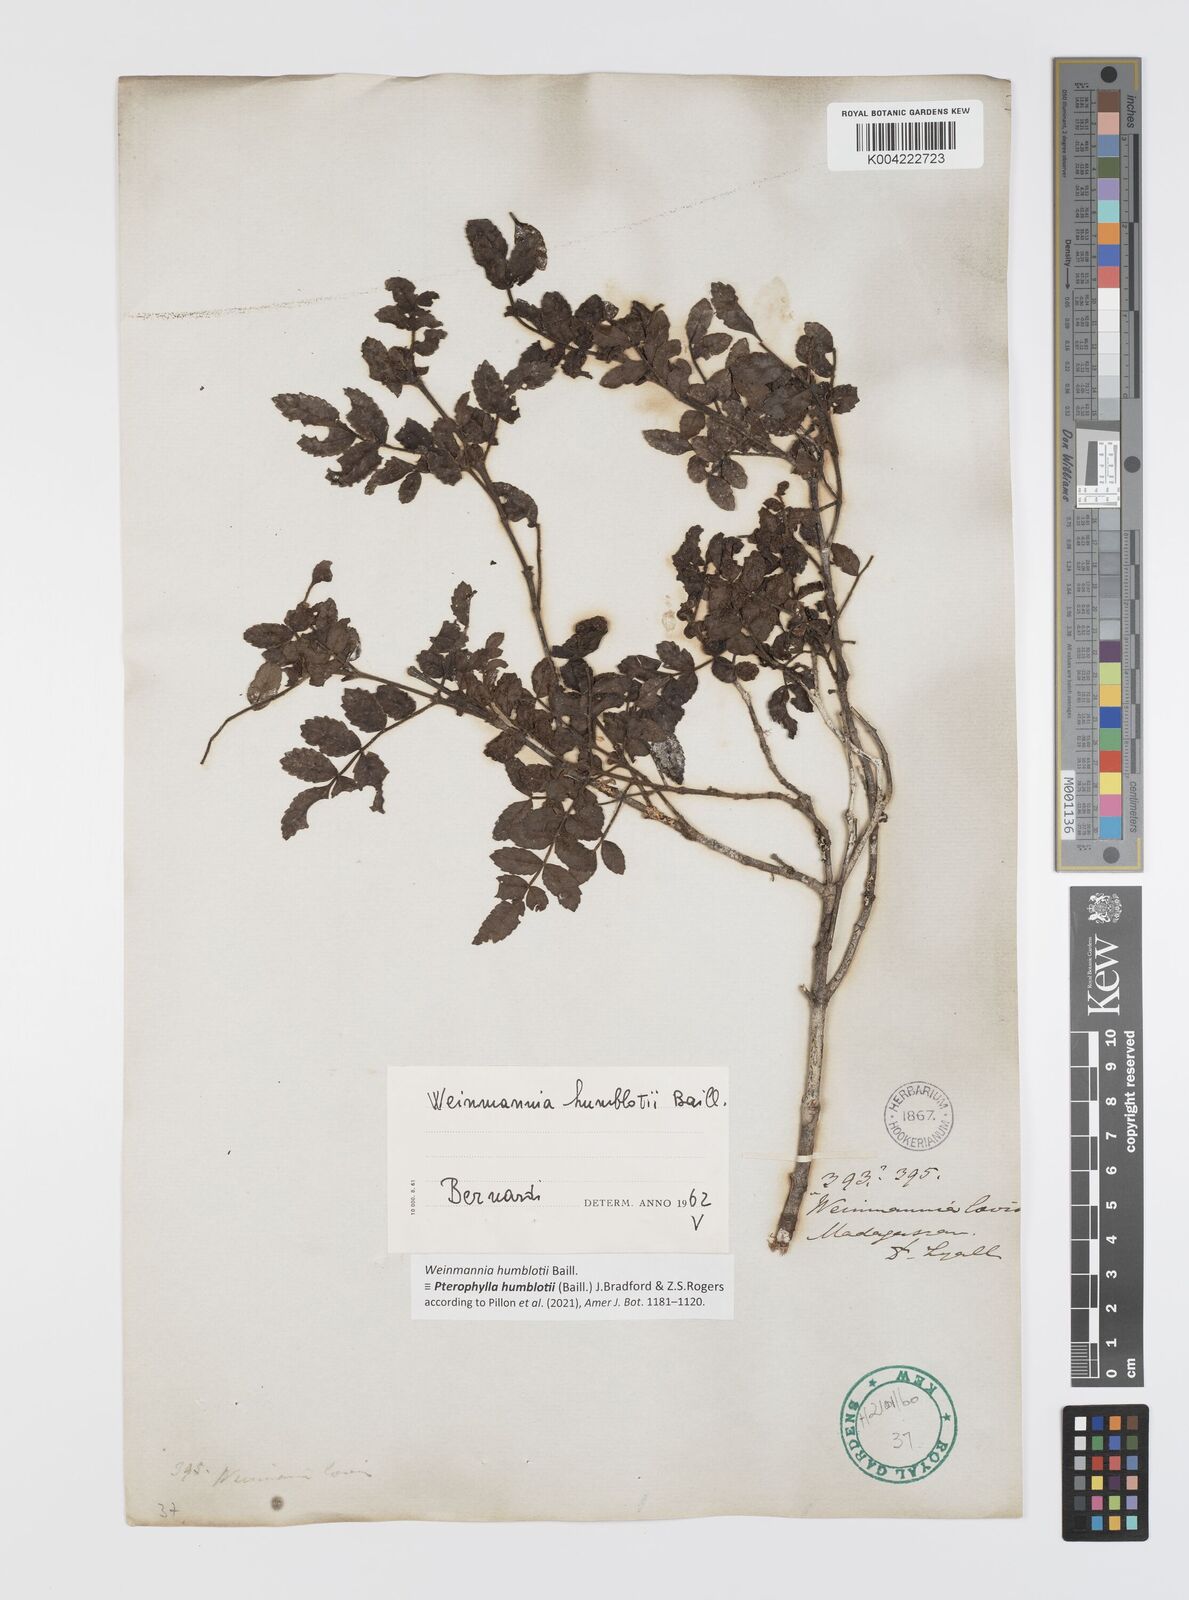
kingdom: Plantae
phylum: Tracheophyta
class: Magnoliopsida
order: Oxalidales
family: Cunoniaceae
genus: Pterophylla
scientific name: Pterophylla
